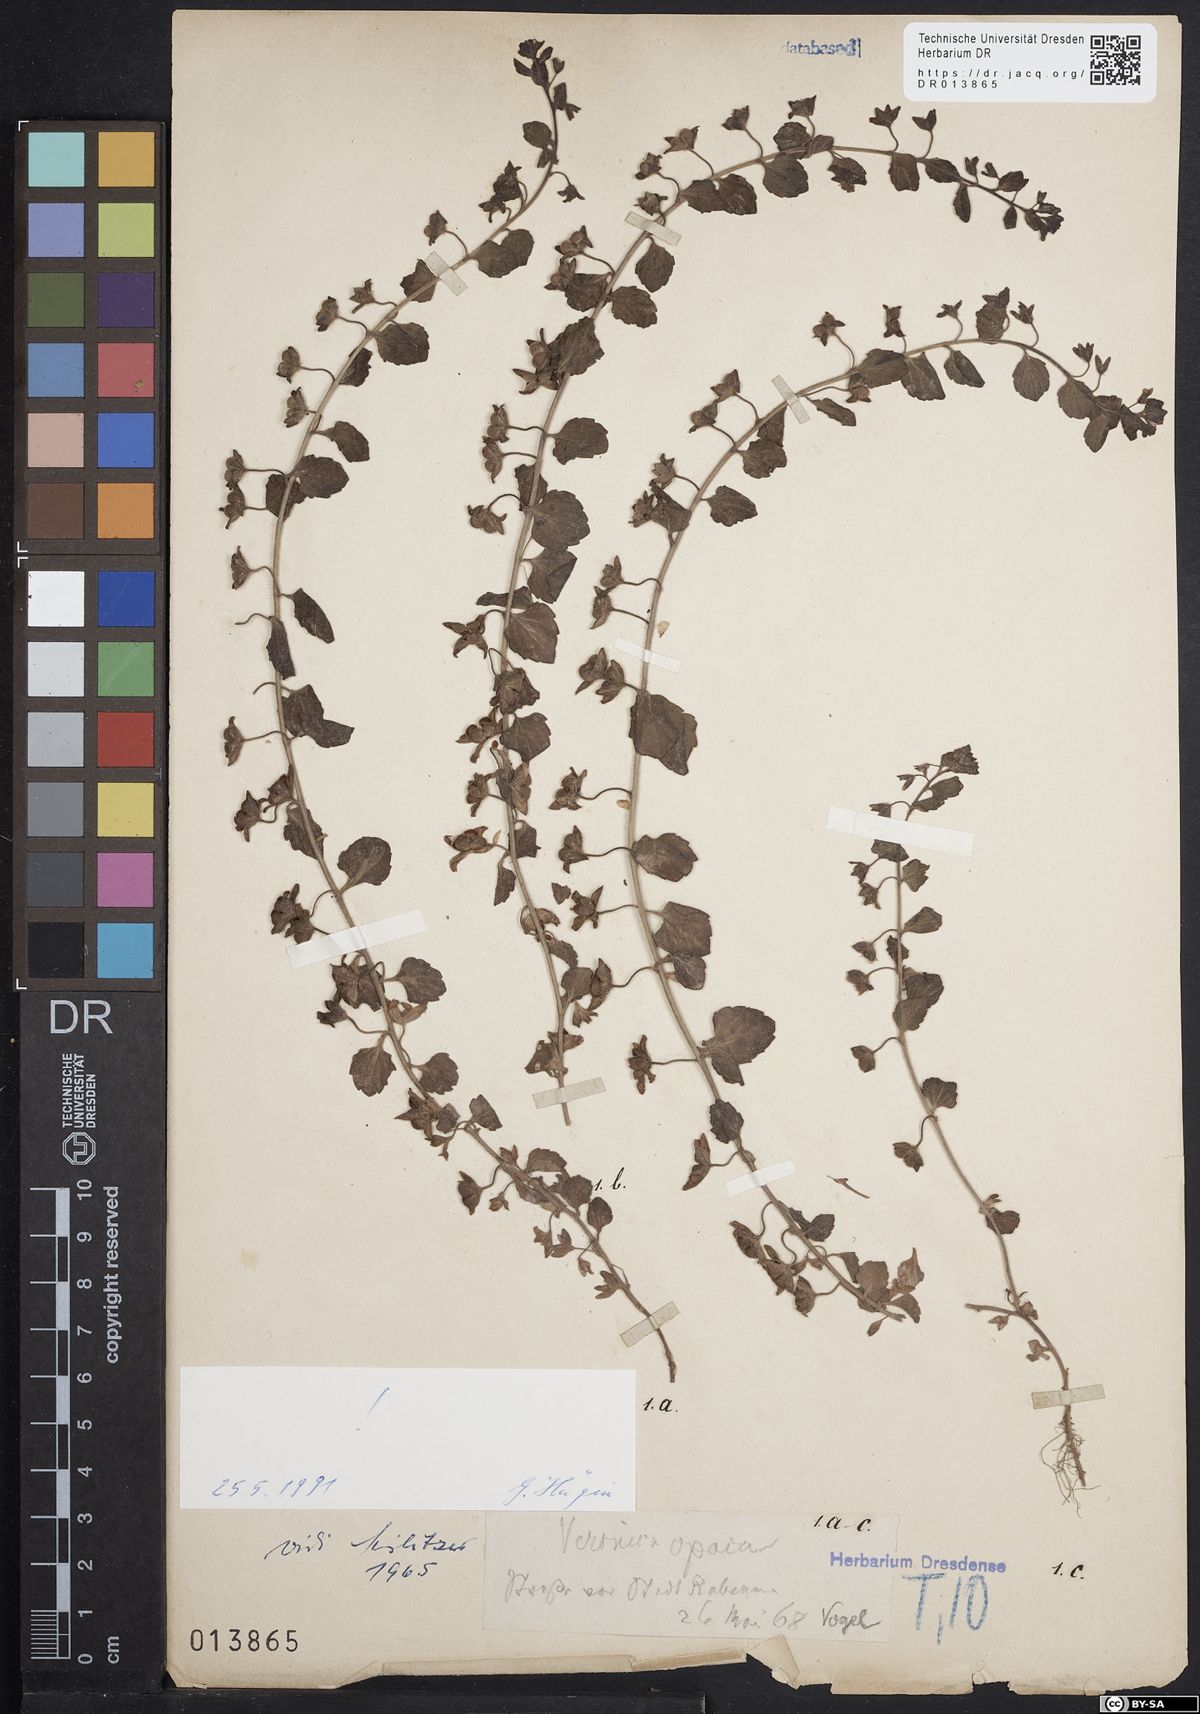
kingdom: Plantae
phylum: Tracheophyta
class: Magnoliopsida
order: Lamiales
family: Plantaginaceae
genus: Veronica
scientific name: Veronica opaca
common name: Dark speedwell
